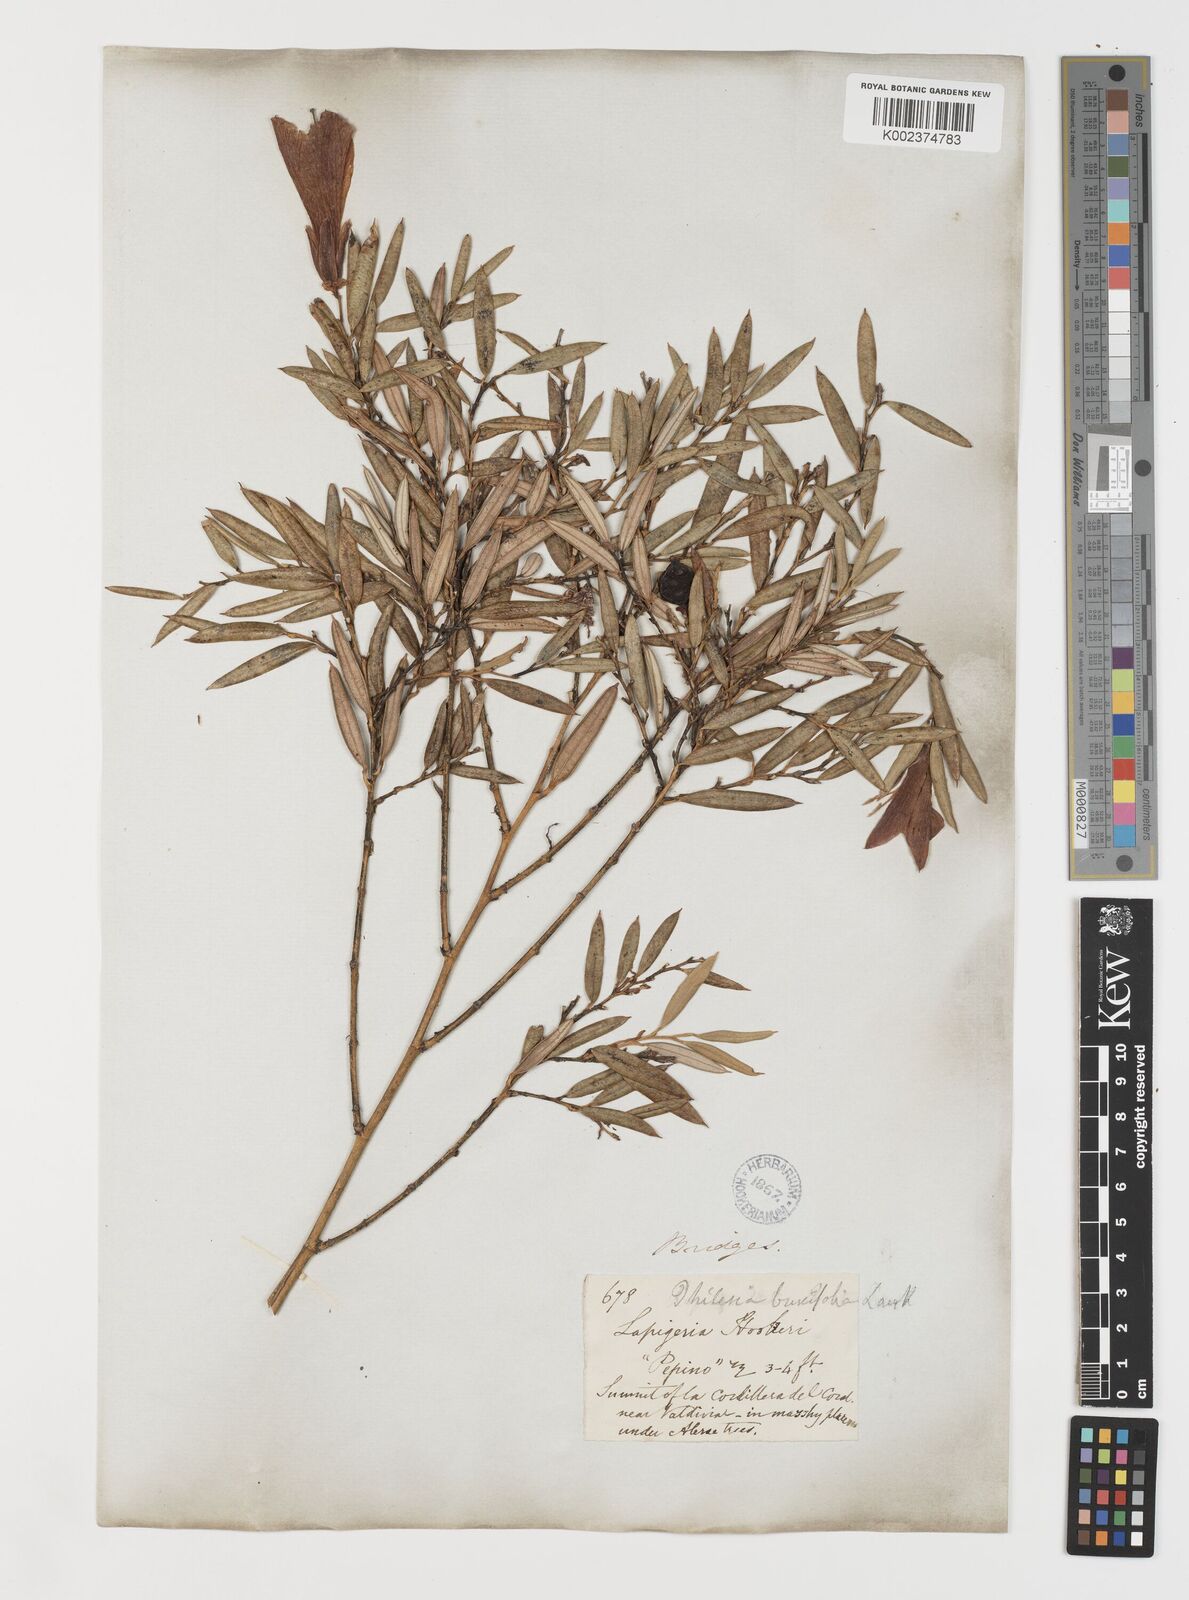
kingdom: Plantae
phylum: Tracheophyta
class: Liliopsida
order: Liliales
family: Philesiaceae
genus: Philesia
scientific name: Philesia magellanica
